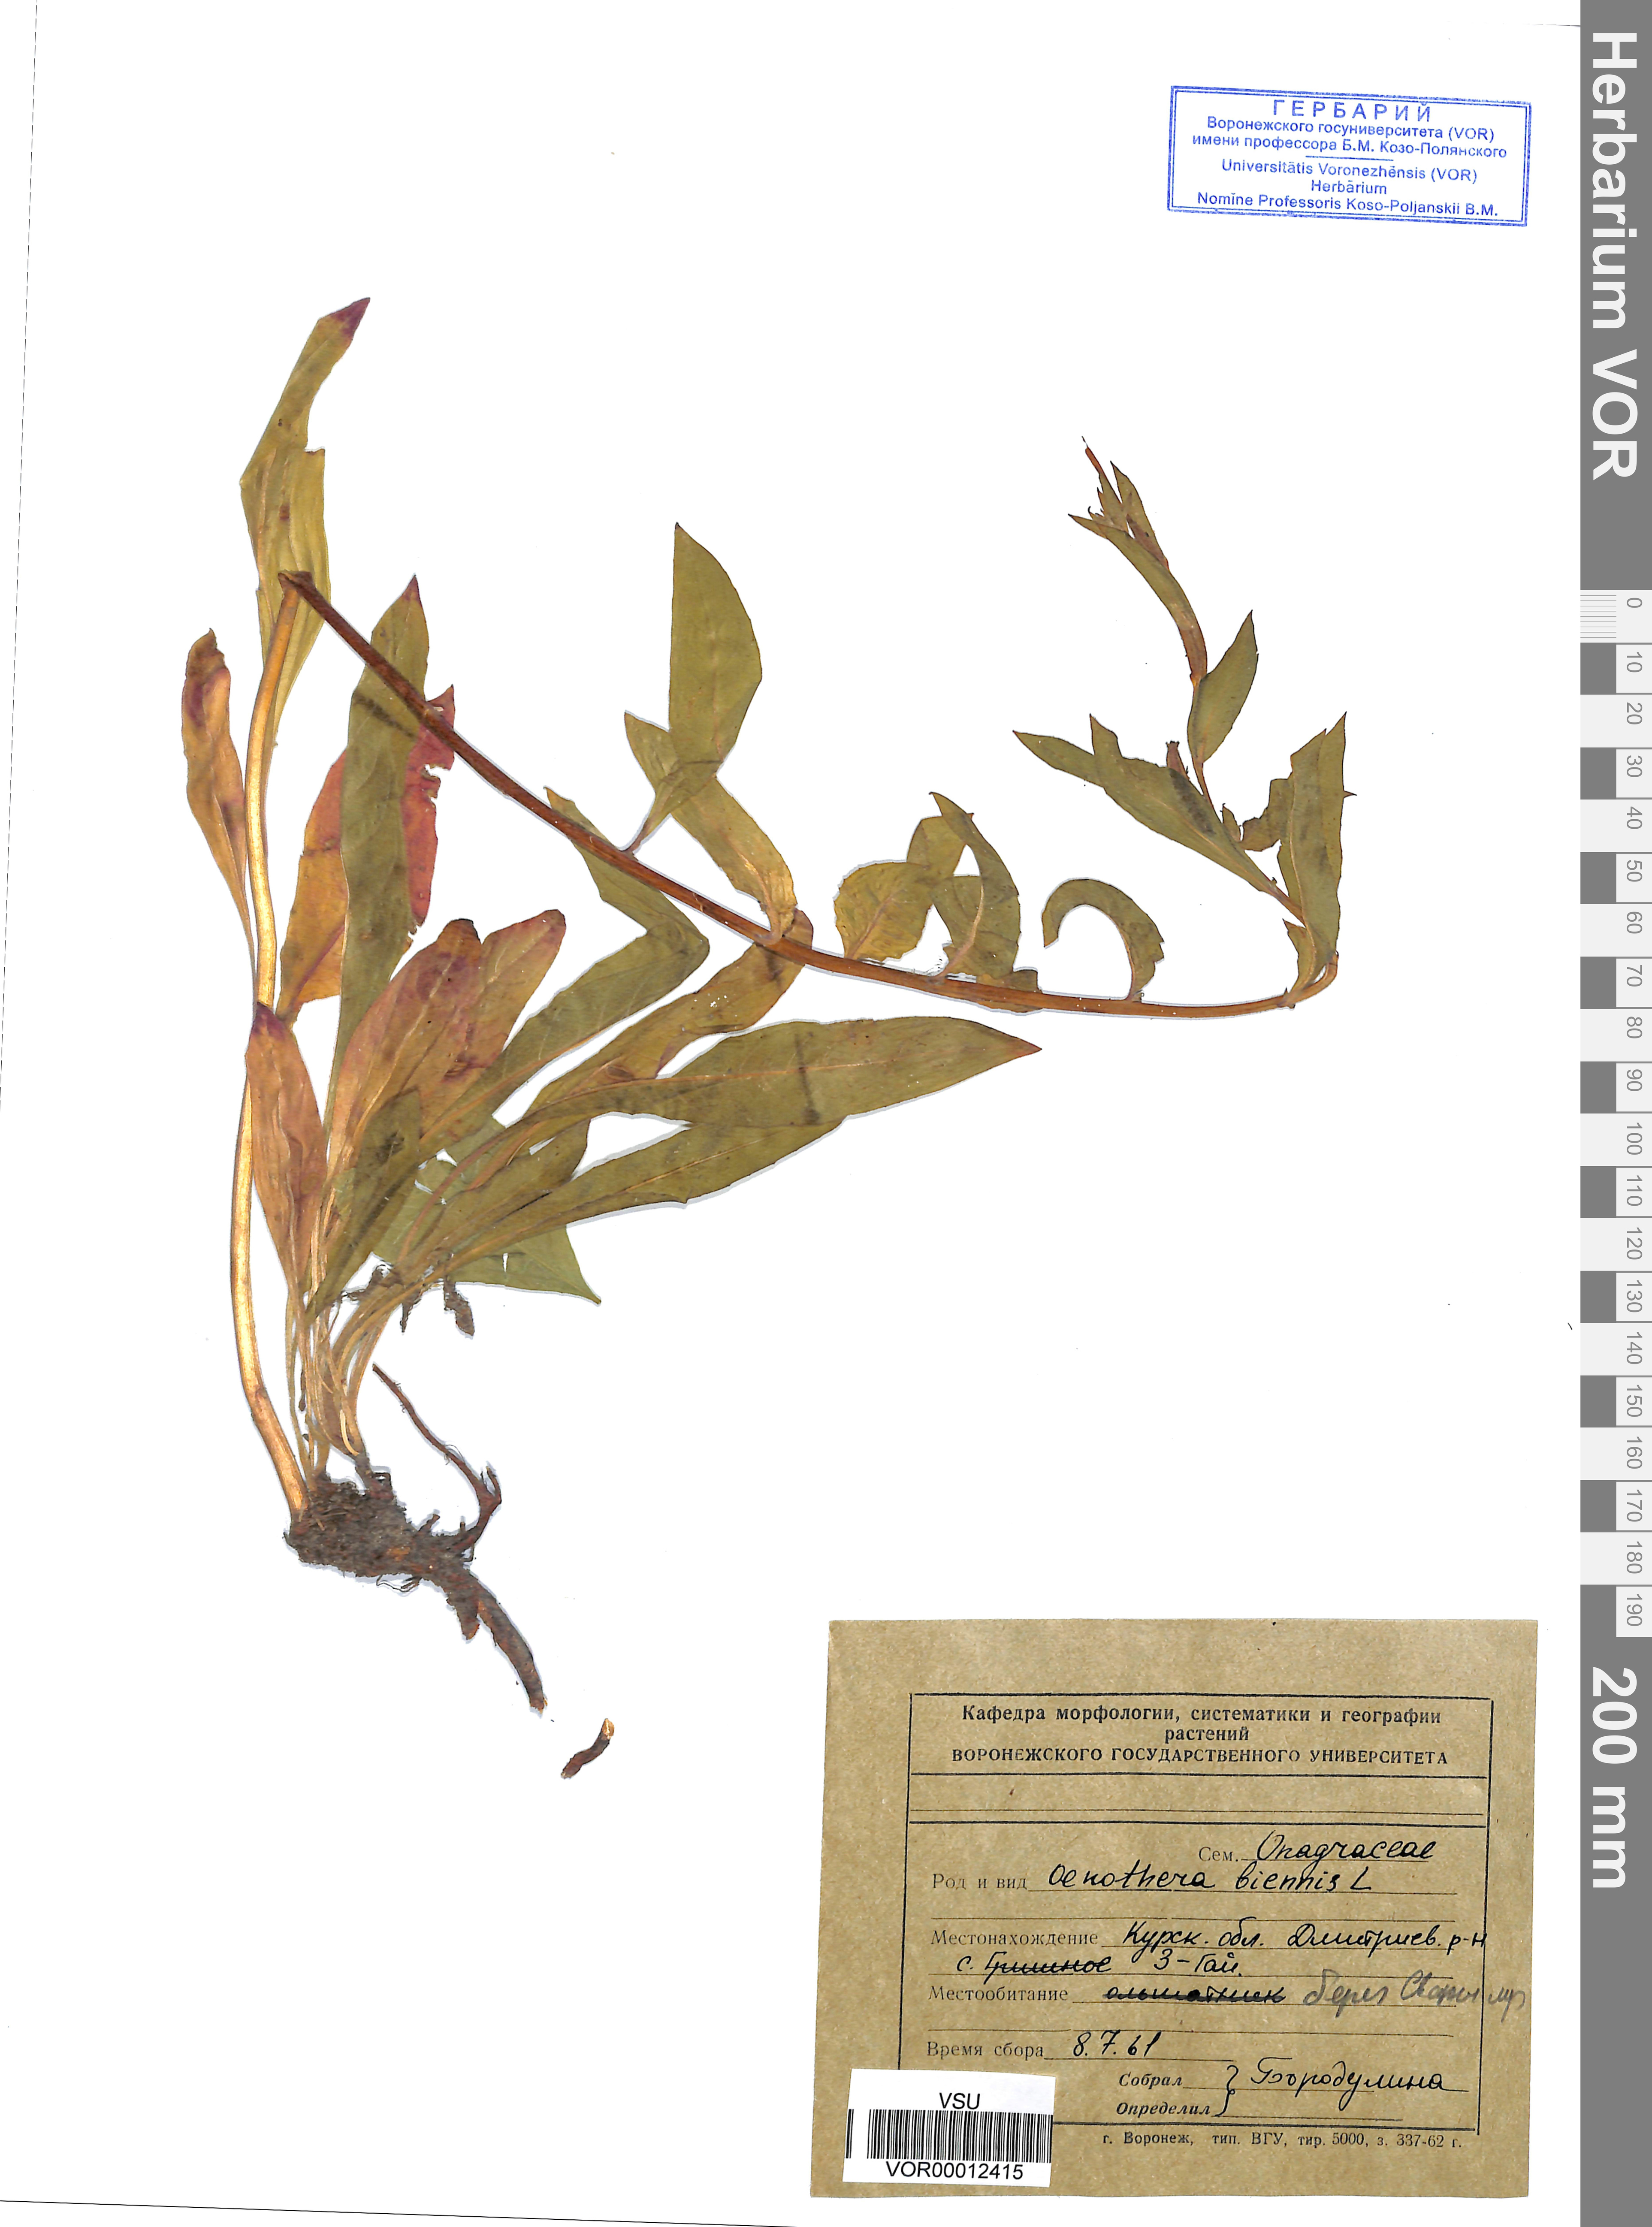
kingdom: Plantae
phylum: Tracheophyta
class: Magnoliopsida
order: Myrtales
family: Onagraceae
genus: Oenothera
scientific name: Oenothera biennis
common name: Common evening-primrose
